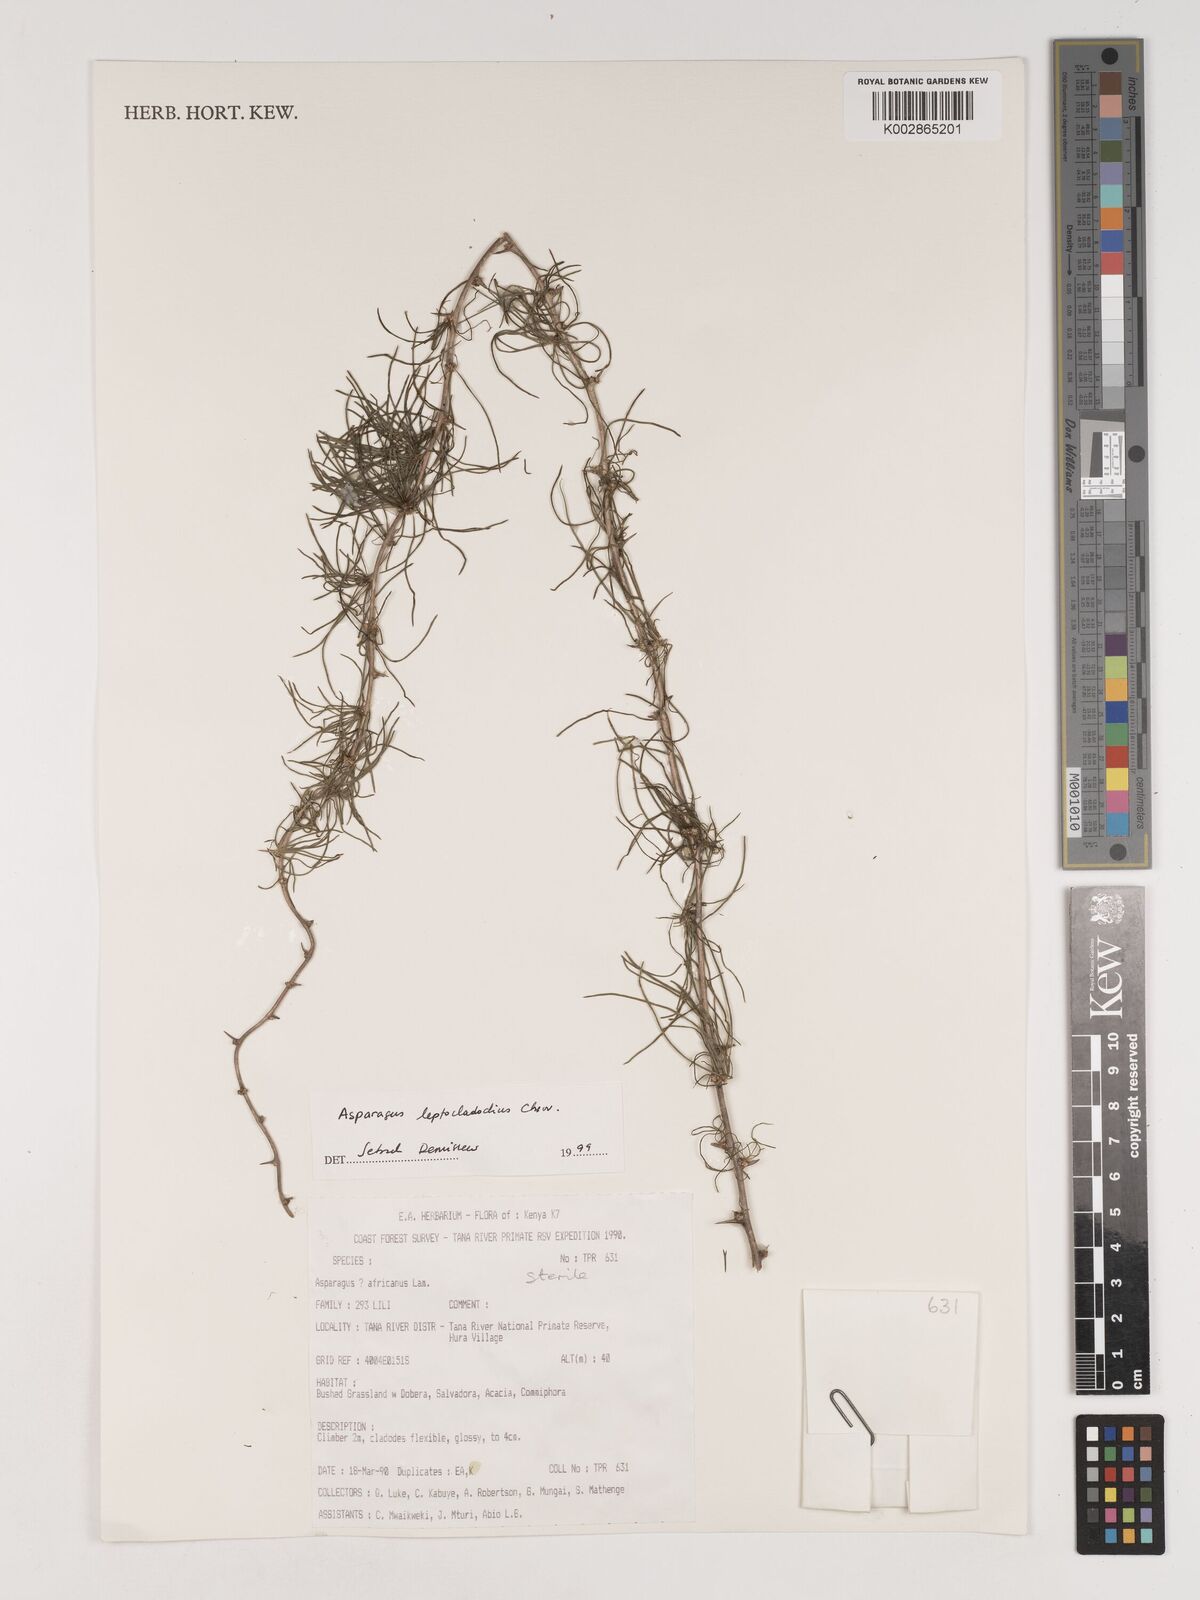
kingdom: Plantae
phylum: Tracheophyta
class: Liliopsida
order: Asparagales
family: Asparagaceae
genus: Asparagus
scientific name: Asparagus leptocladodius
